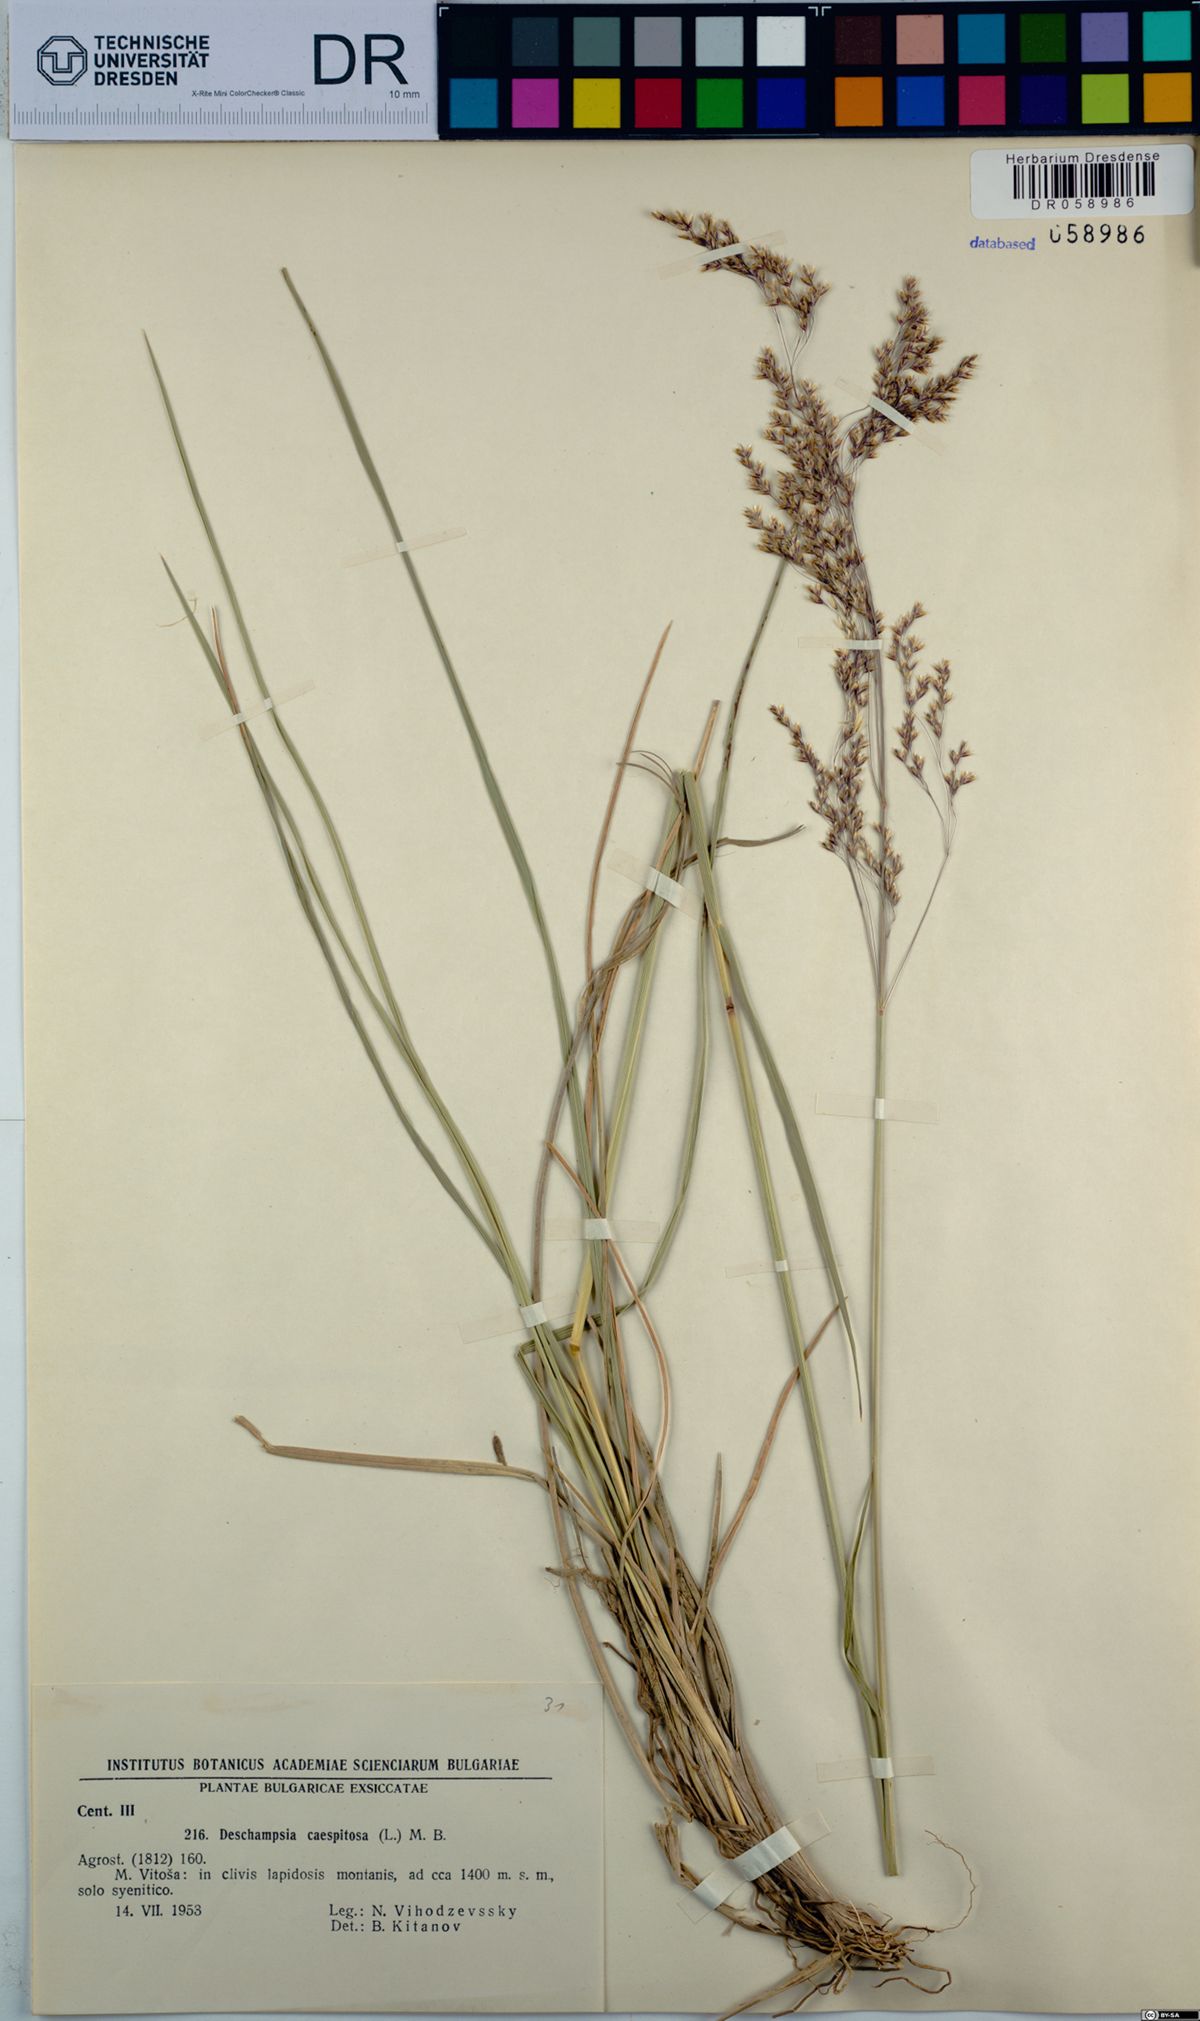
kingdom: Plantae
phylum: Tracheophyta
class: Liliopsida
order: Poales
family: Poaceae
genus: Deschampsia
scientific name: Deschampsia cespitosa
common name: Tufted hair-grass
